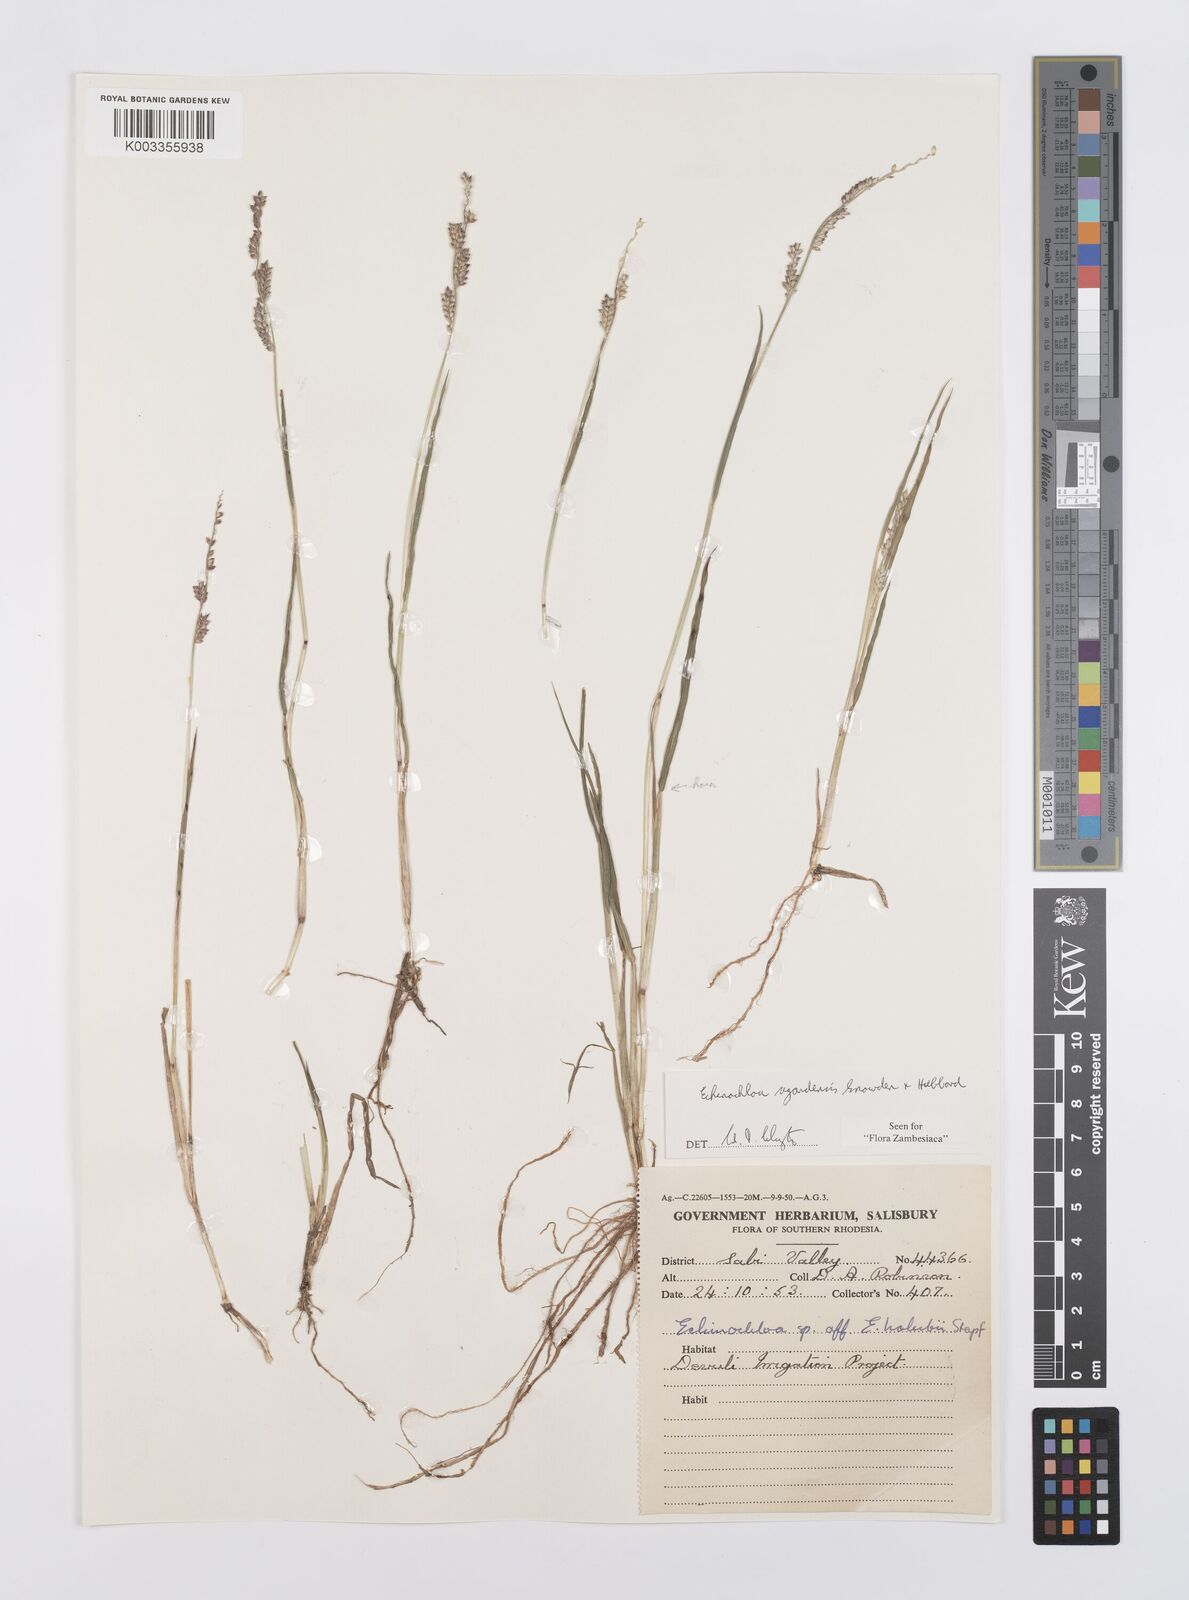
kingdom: Plantae
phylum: Tracheophyta
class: Liliopsida
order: Poales
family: Poaceae
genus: Echinochloa
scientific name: Echinochloa ugandensis
